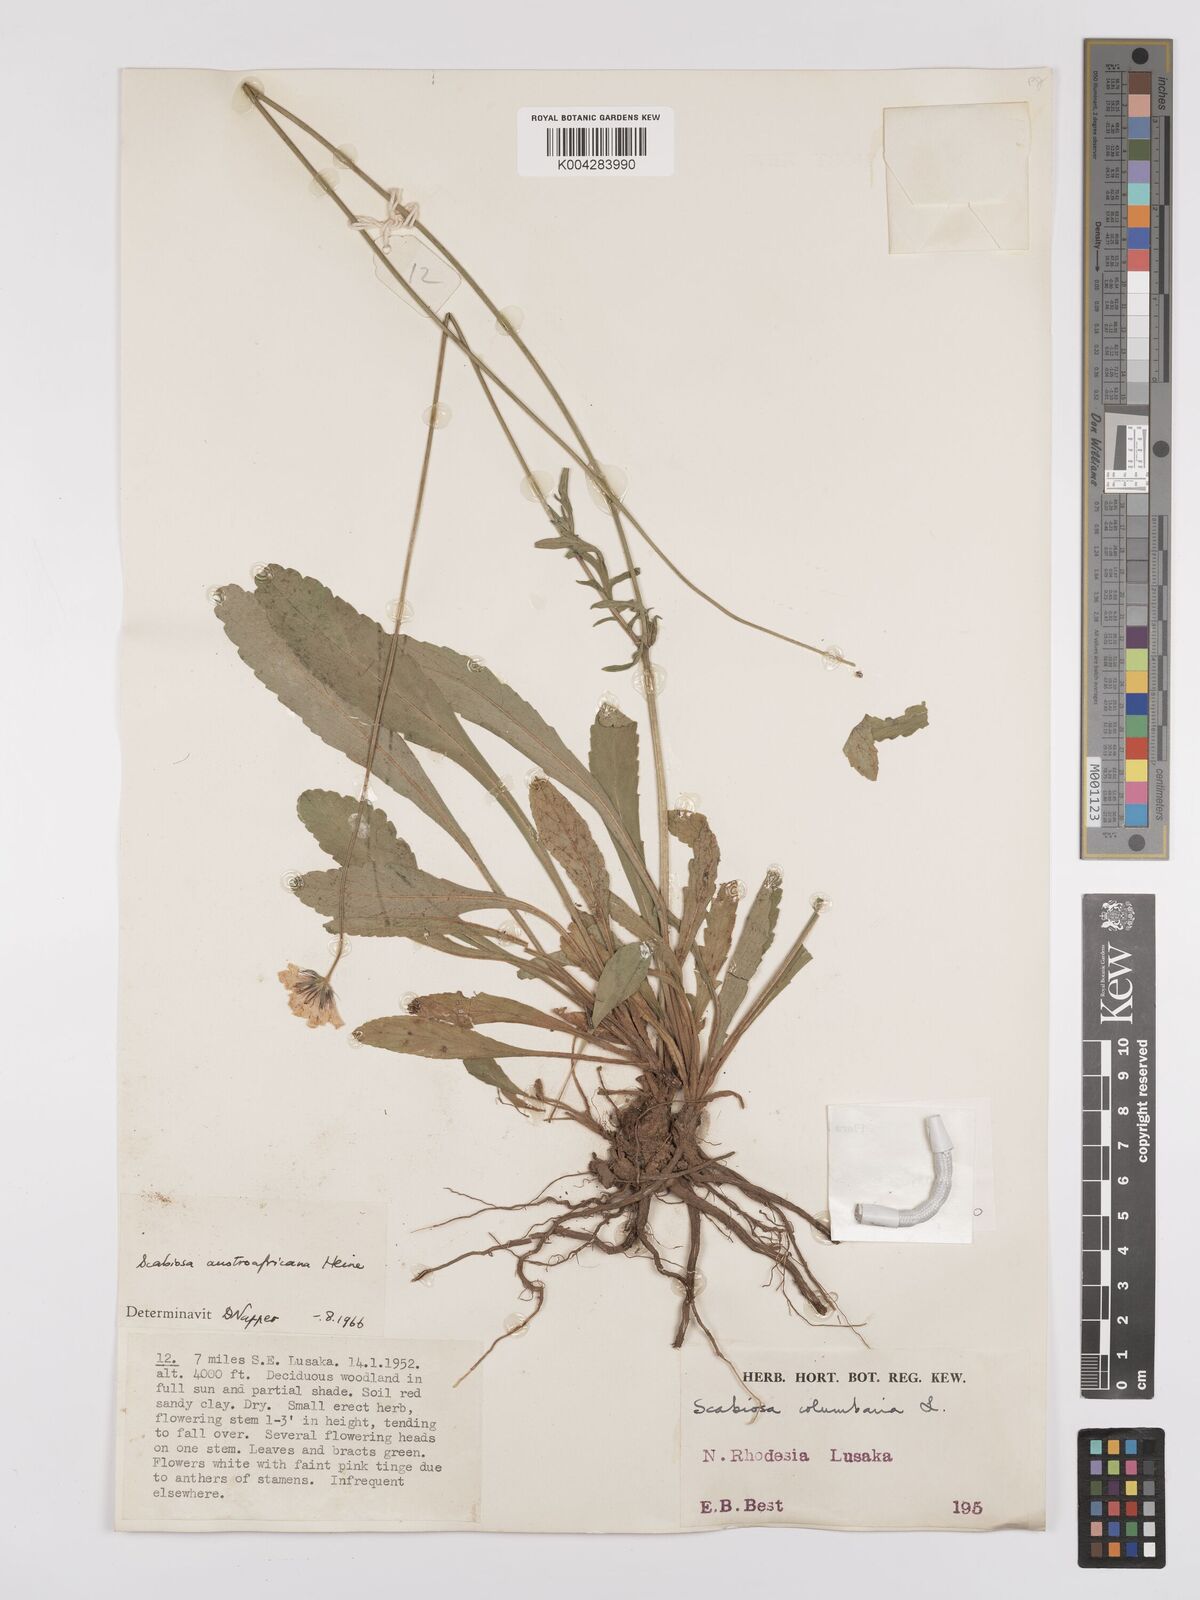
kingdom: Plantae
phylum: Tracheophyta
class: Magnoliopsida
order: Dipsacales
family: Caprifoliaceae
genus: Scabiosa
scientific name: Scabiosa austroafricana
